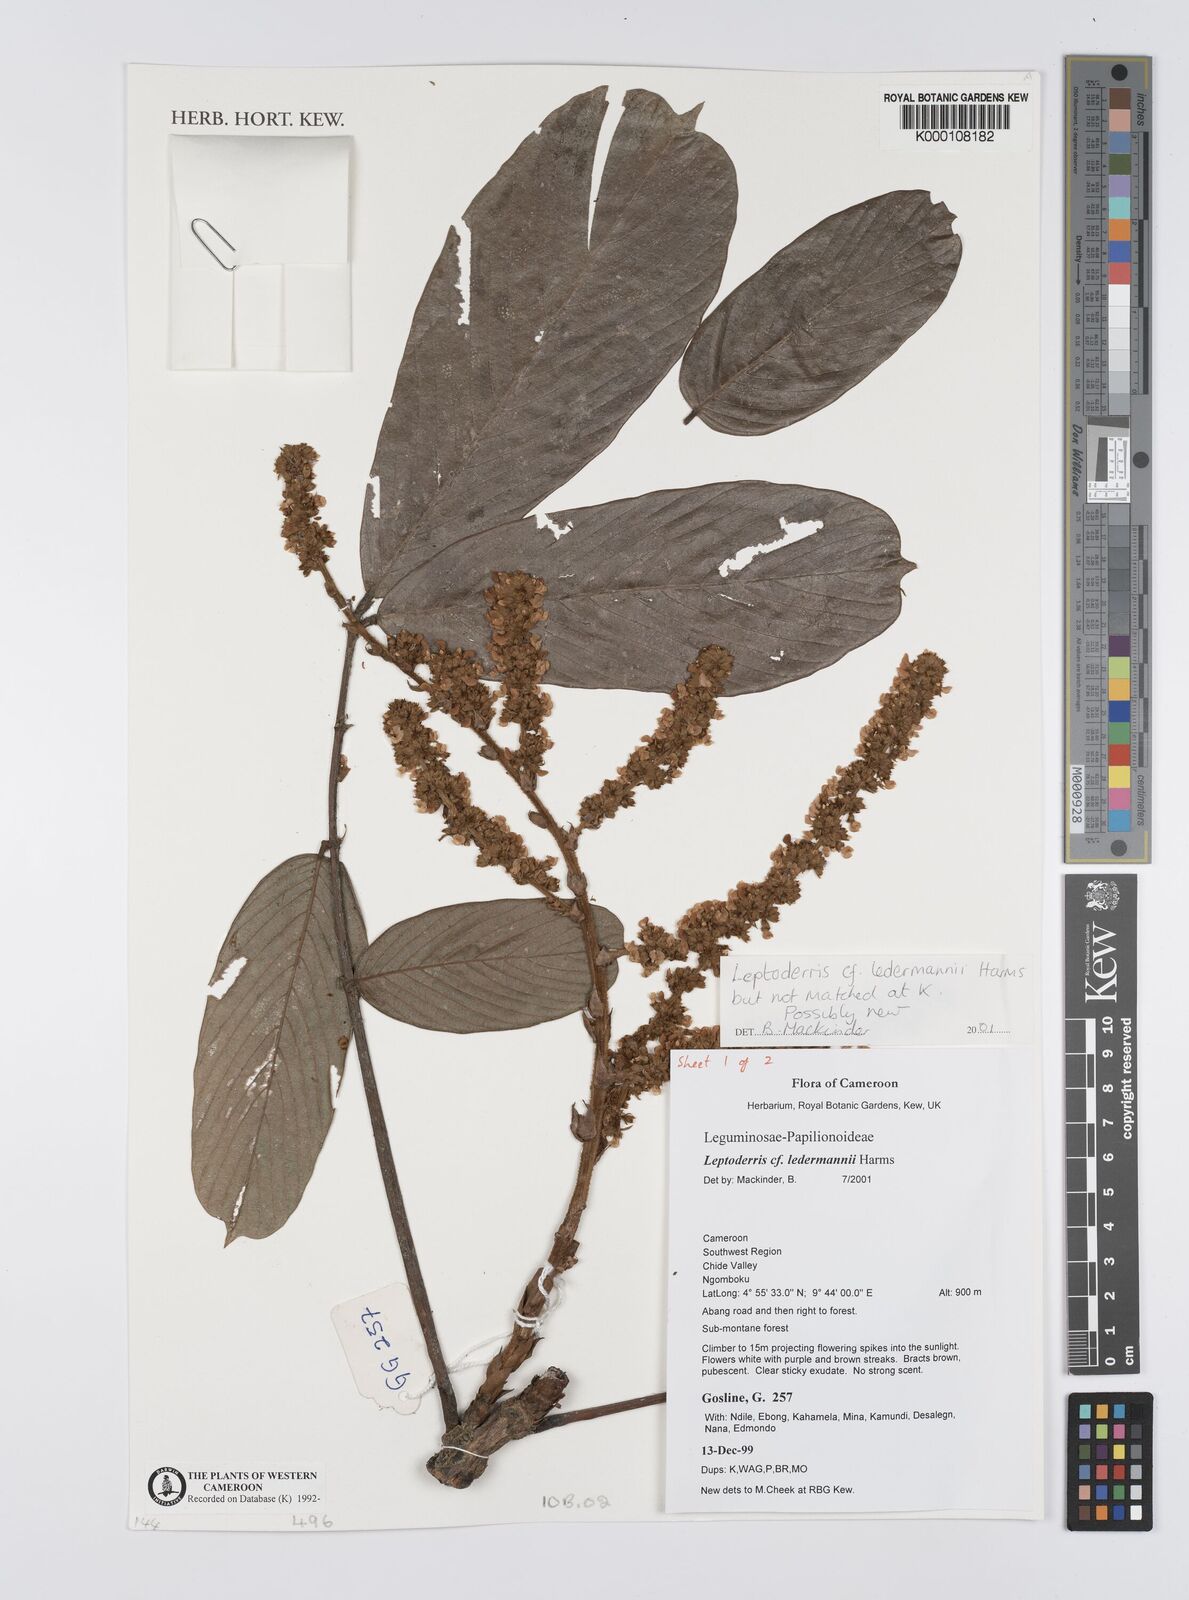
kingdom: Plantae
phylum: Tracheophyta
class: Magnoliopsida
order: Fabales
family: Fabaceae
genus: Leptoderris
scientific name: Leptoderris ledermannii
